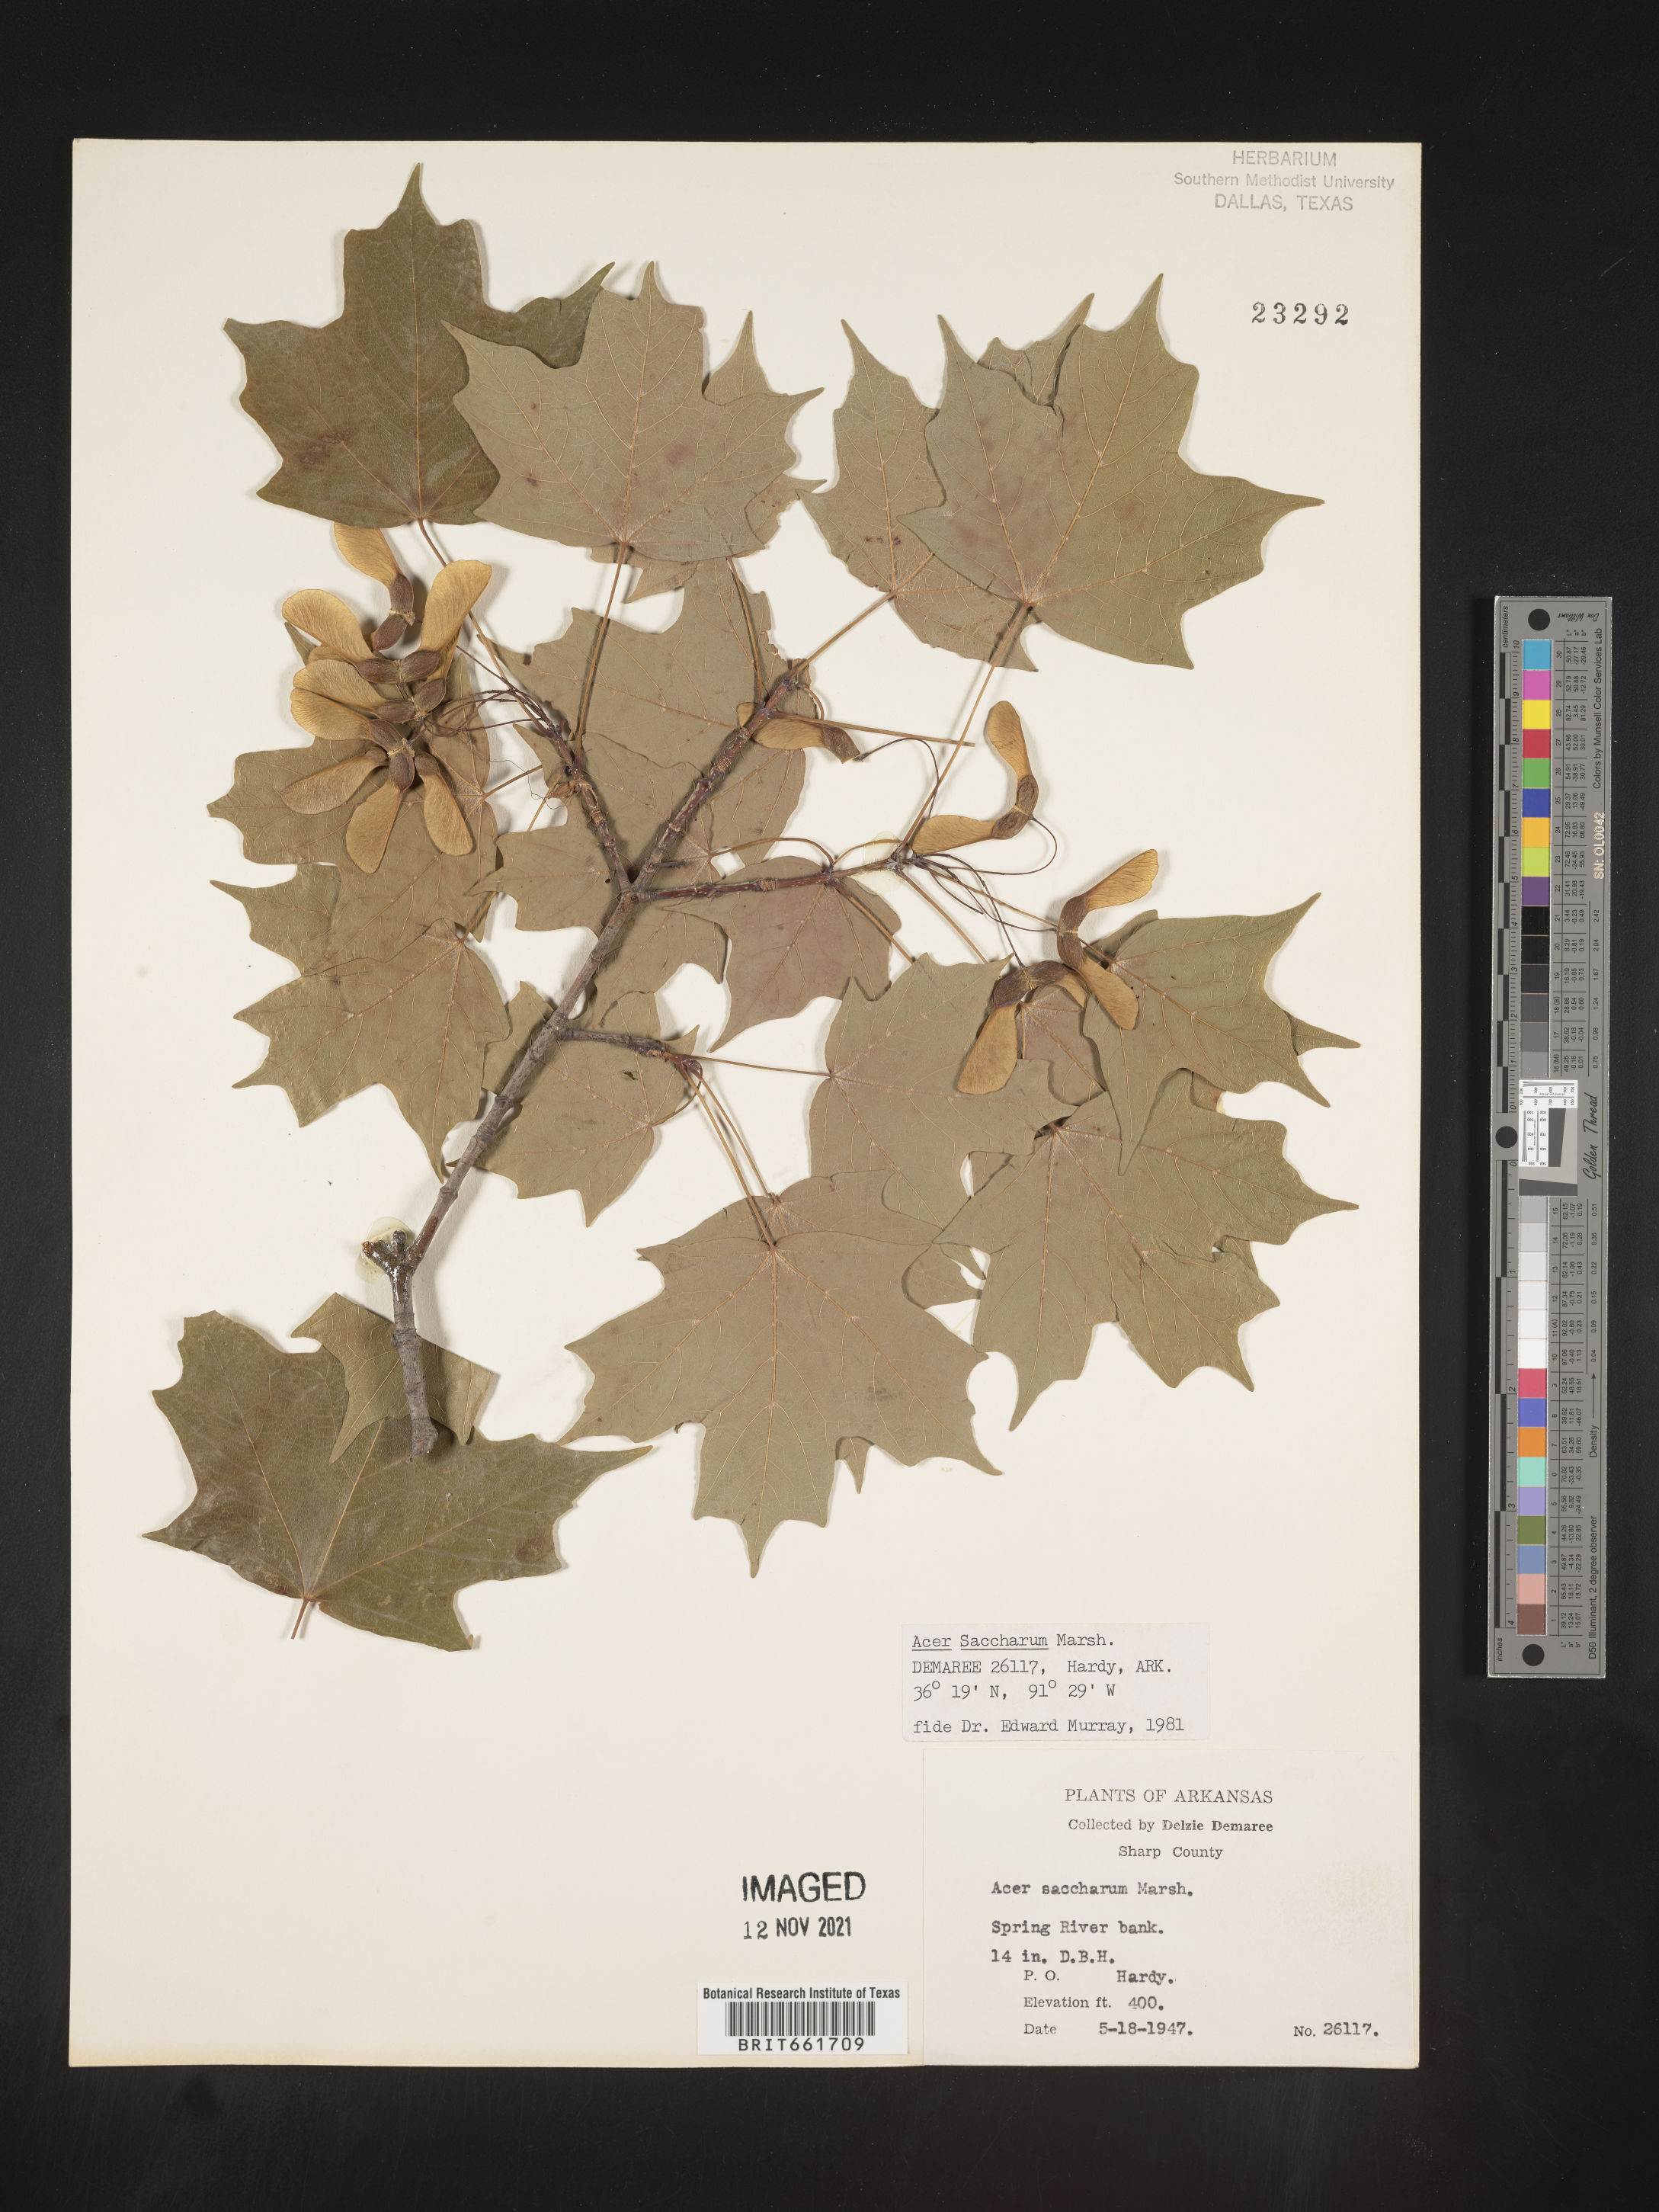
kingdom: Plantae
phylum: Tracheophyta
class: Magnoliopsida
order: Sapindales
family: Sapindaceae
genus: Acer
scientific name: Acer saccharum
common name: Sugar maple
